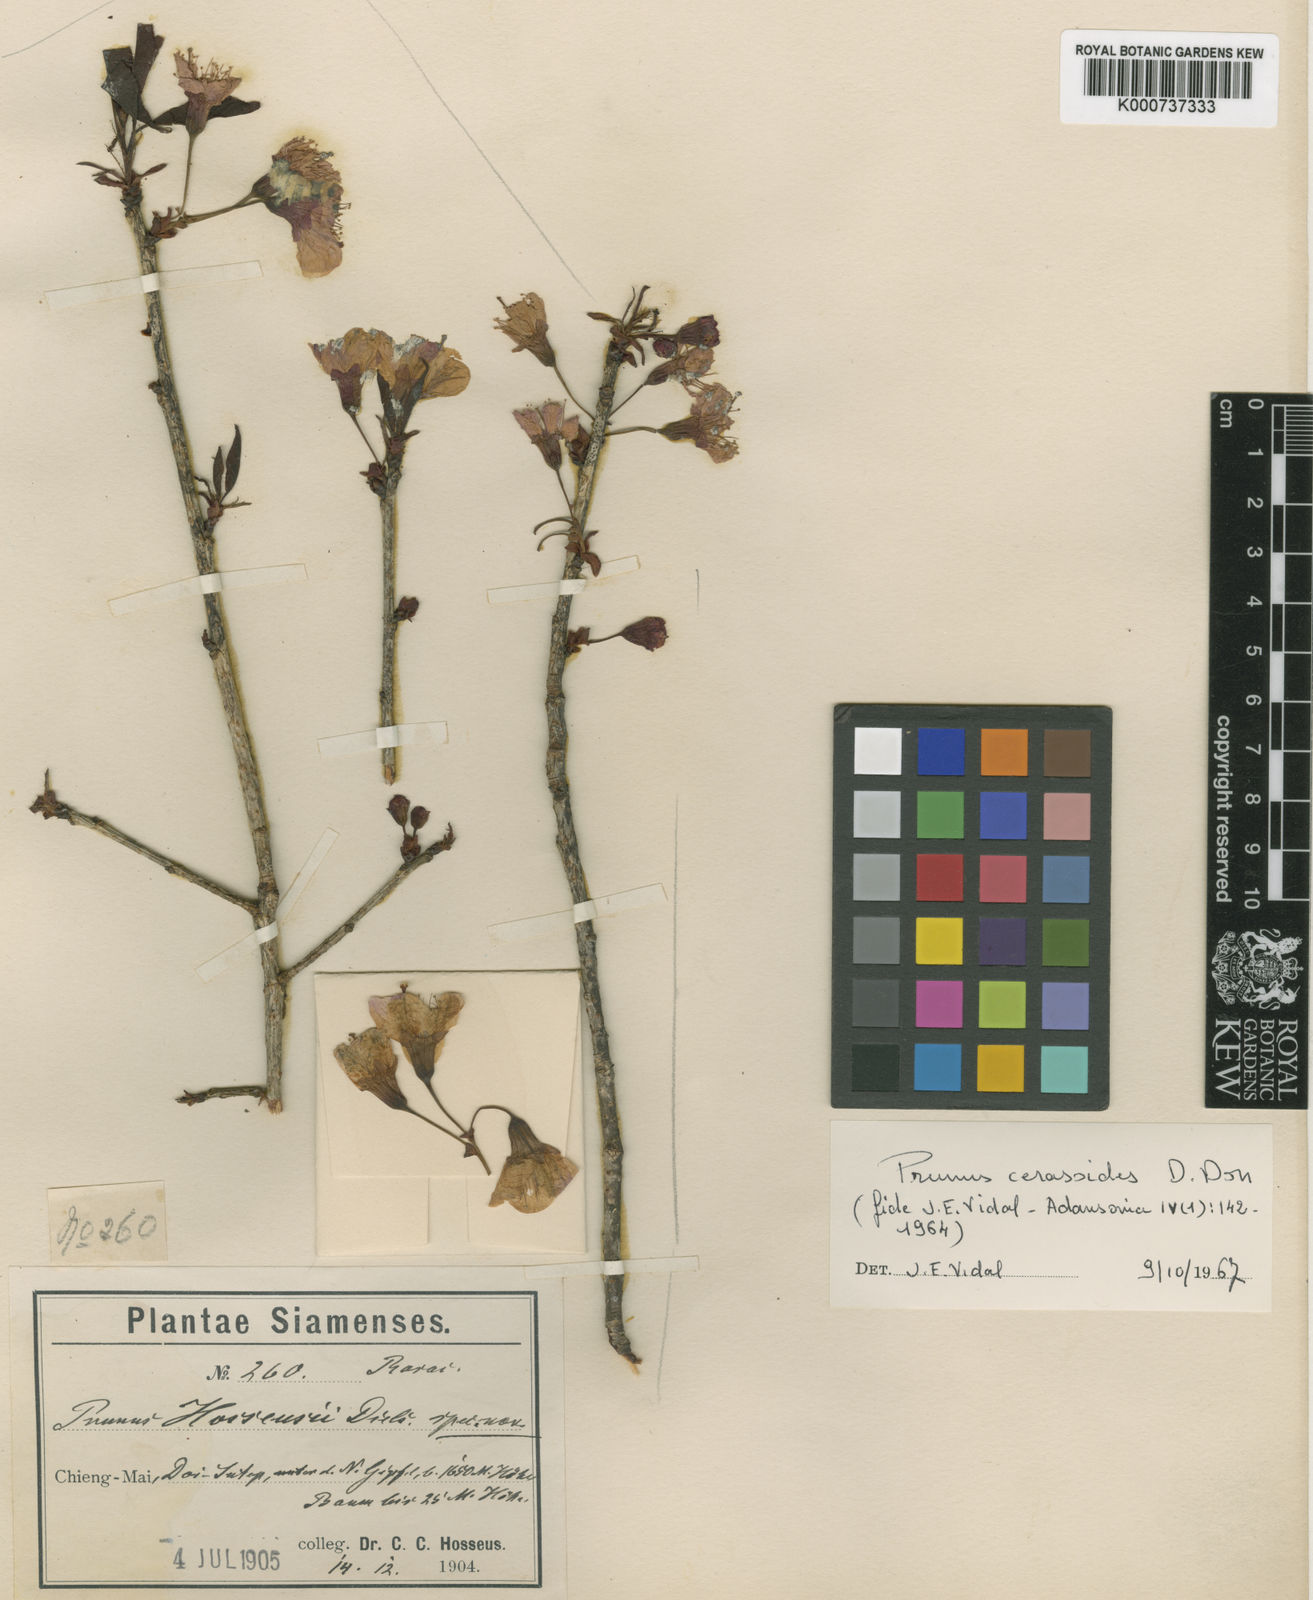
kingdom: Plantae
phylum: Tracheophyta
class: Magnoliopsida
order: Rosales
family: Rosaceae
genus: Prunus
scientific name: Prunus cerasoides
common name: Wild himalayan cherry
